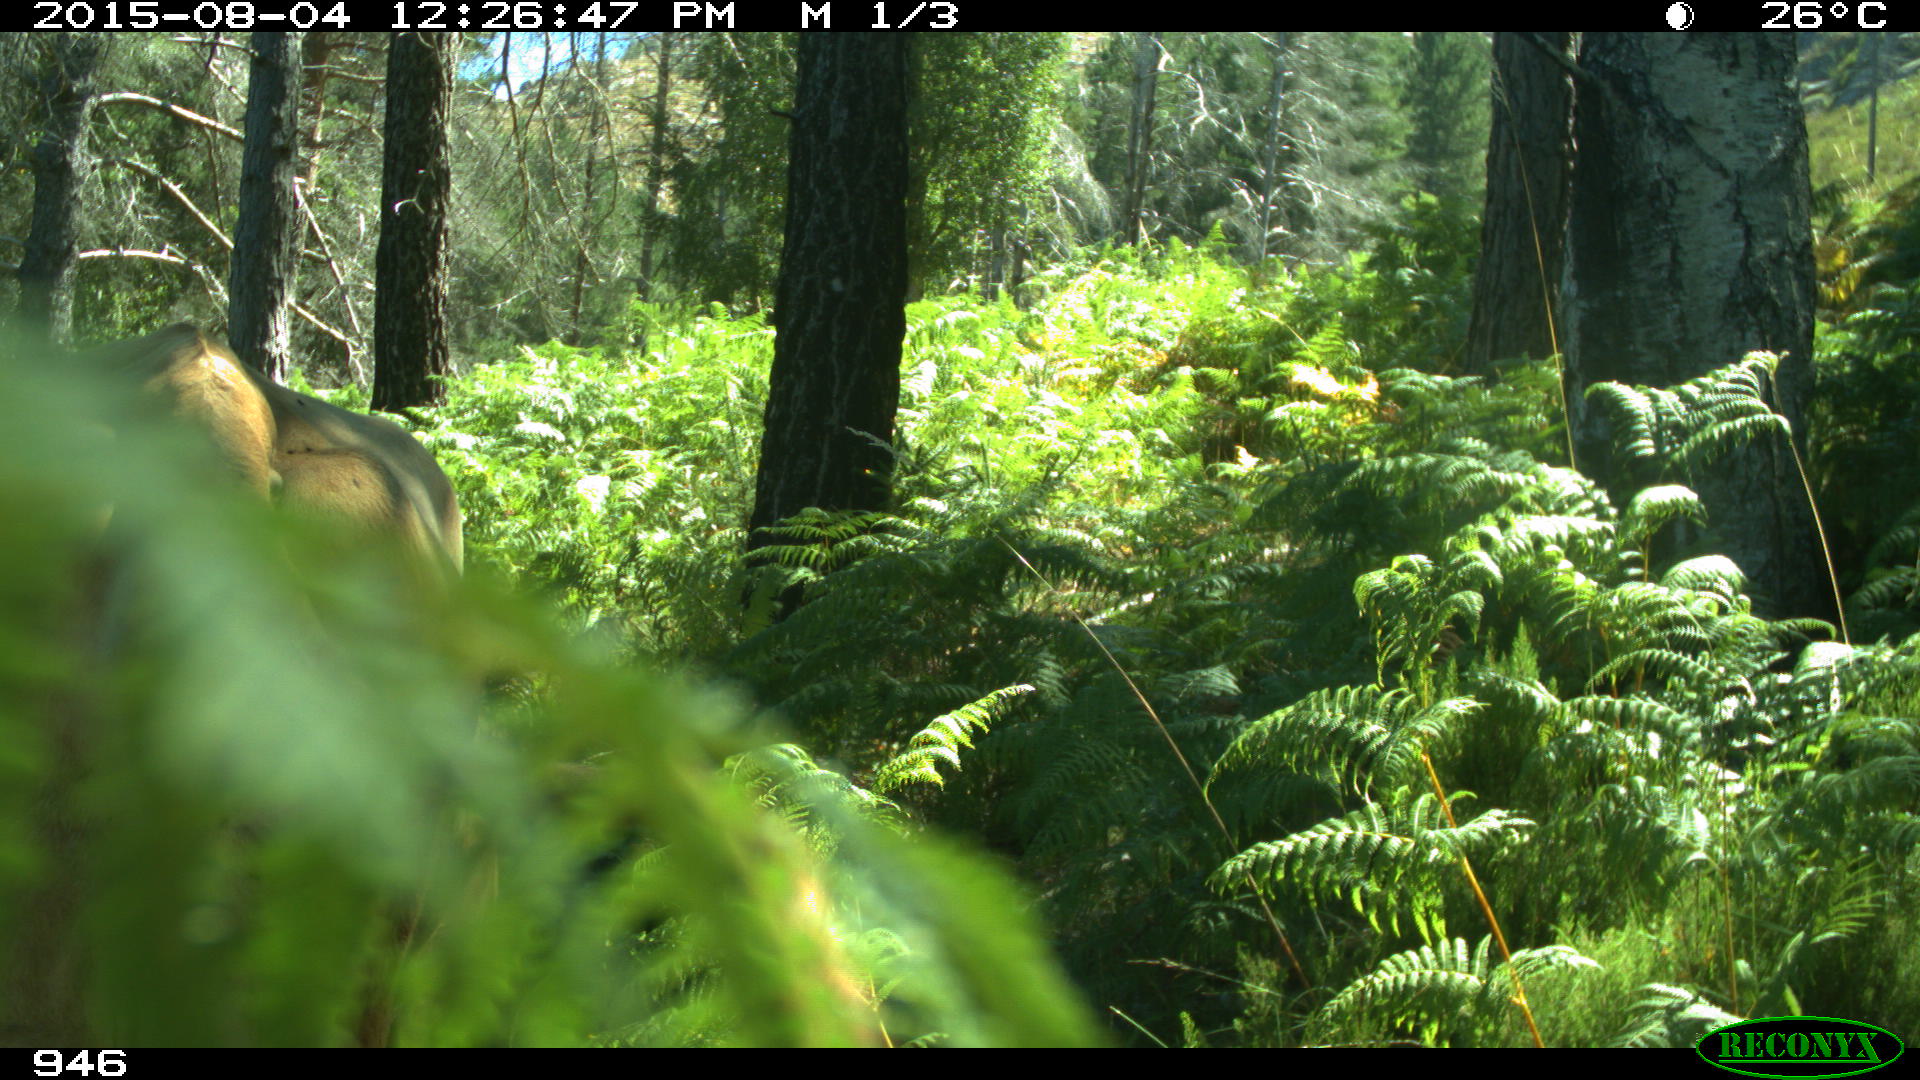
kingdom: Animalia
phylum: Chordata
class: Mammalia
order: Artiodactyla
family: Bovidae
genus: Bos
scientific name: Bos taurus
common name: Domesticated cattle
